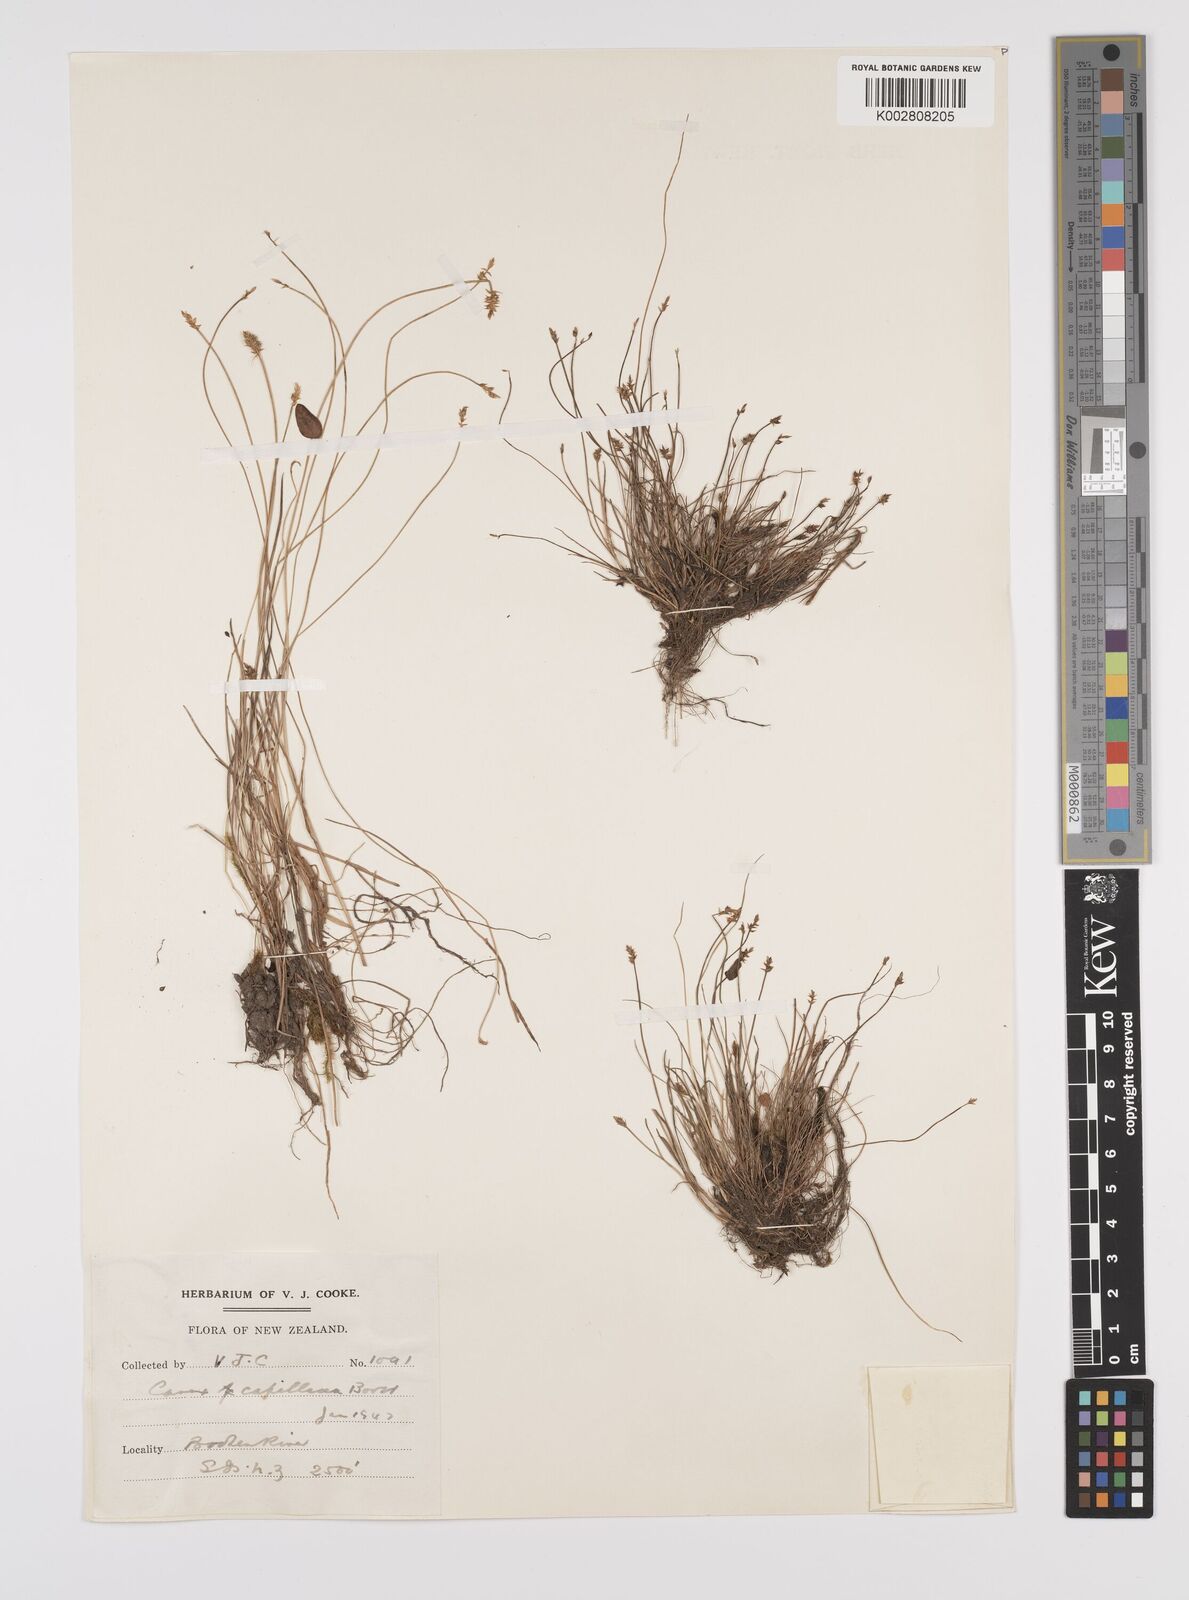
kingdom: Plantae
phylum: Tracheophyta
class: Liliopsida
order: Poales
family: Cyperaceae
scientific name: Cyperaceae
